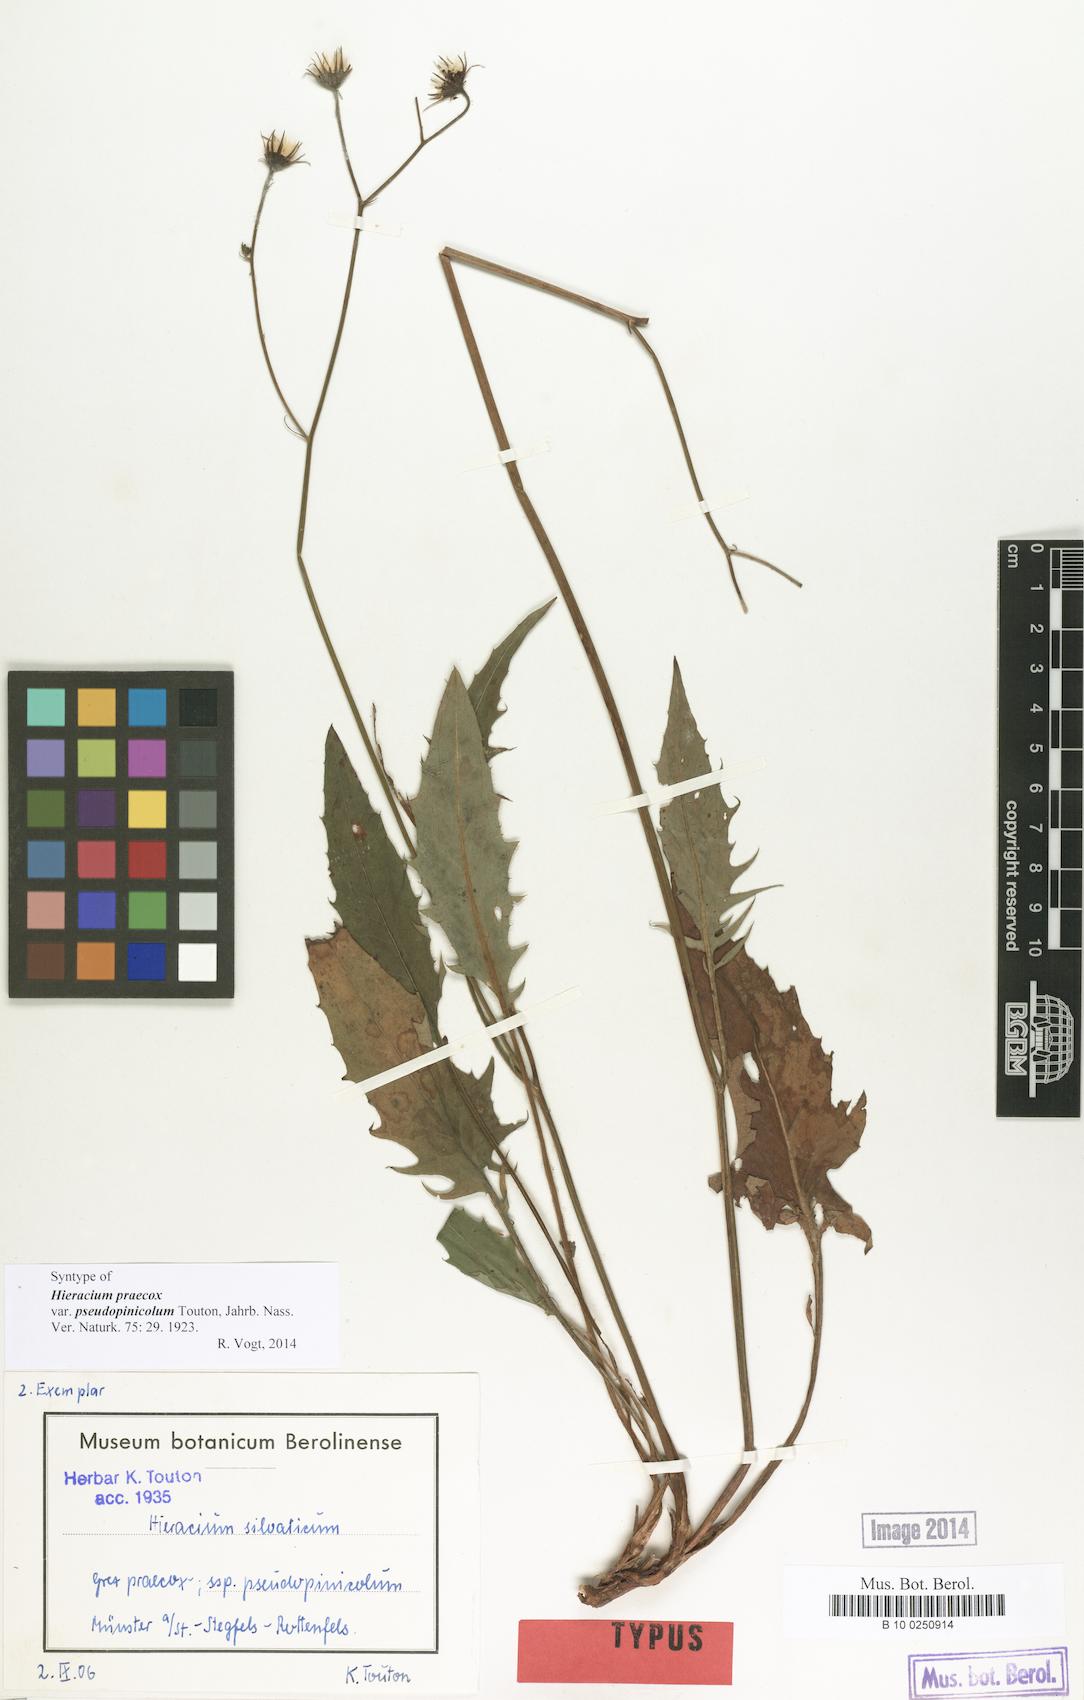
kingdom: Plantae
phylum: Tracheophyta
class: Magnoliopsida
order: Asterales
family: Asteraceae
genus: Hieracium
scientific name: Hieracium praecox
